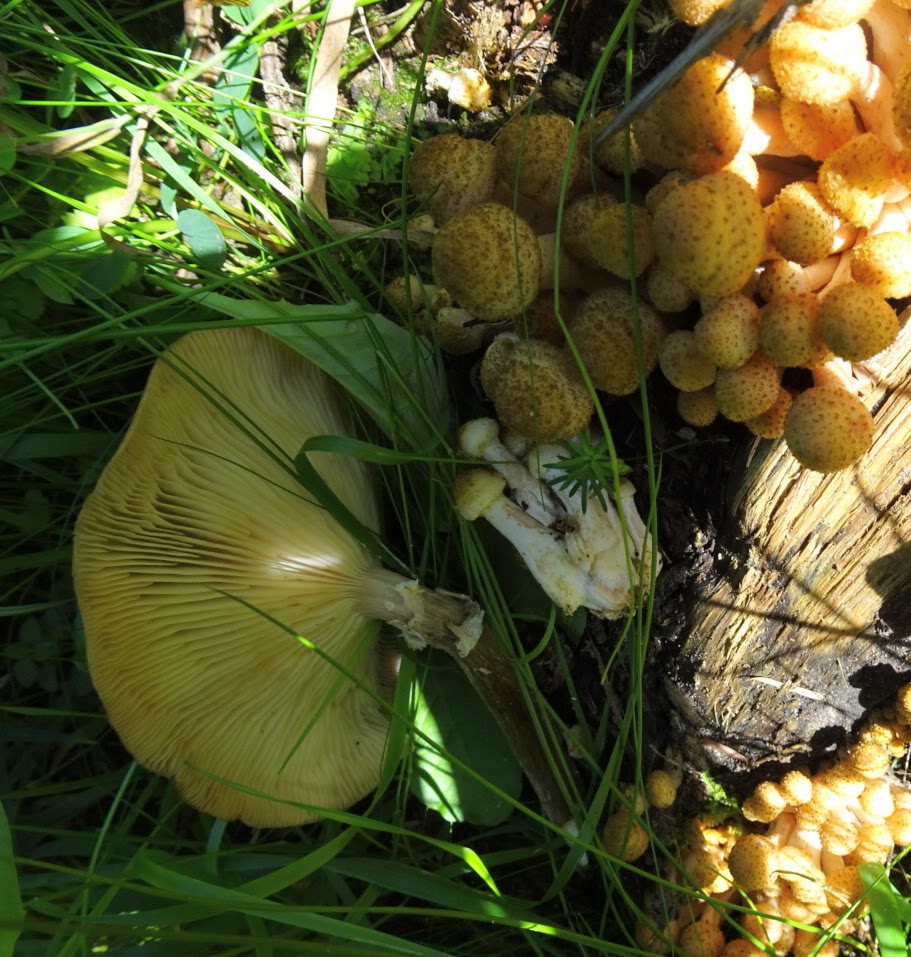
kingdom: Fungi
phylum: Basidiomycota
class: Agaricomycetes
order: Agaricales
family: Physalacriaceae
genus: Armillaria
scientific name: Armillaria ostoyae
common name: mørk honningsvamp
